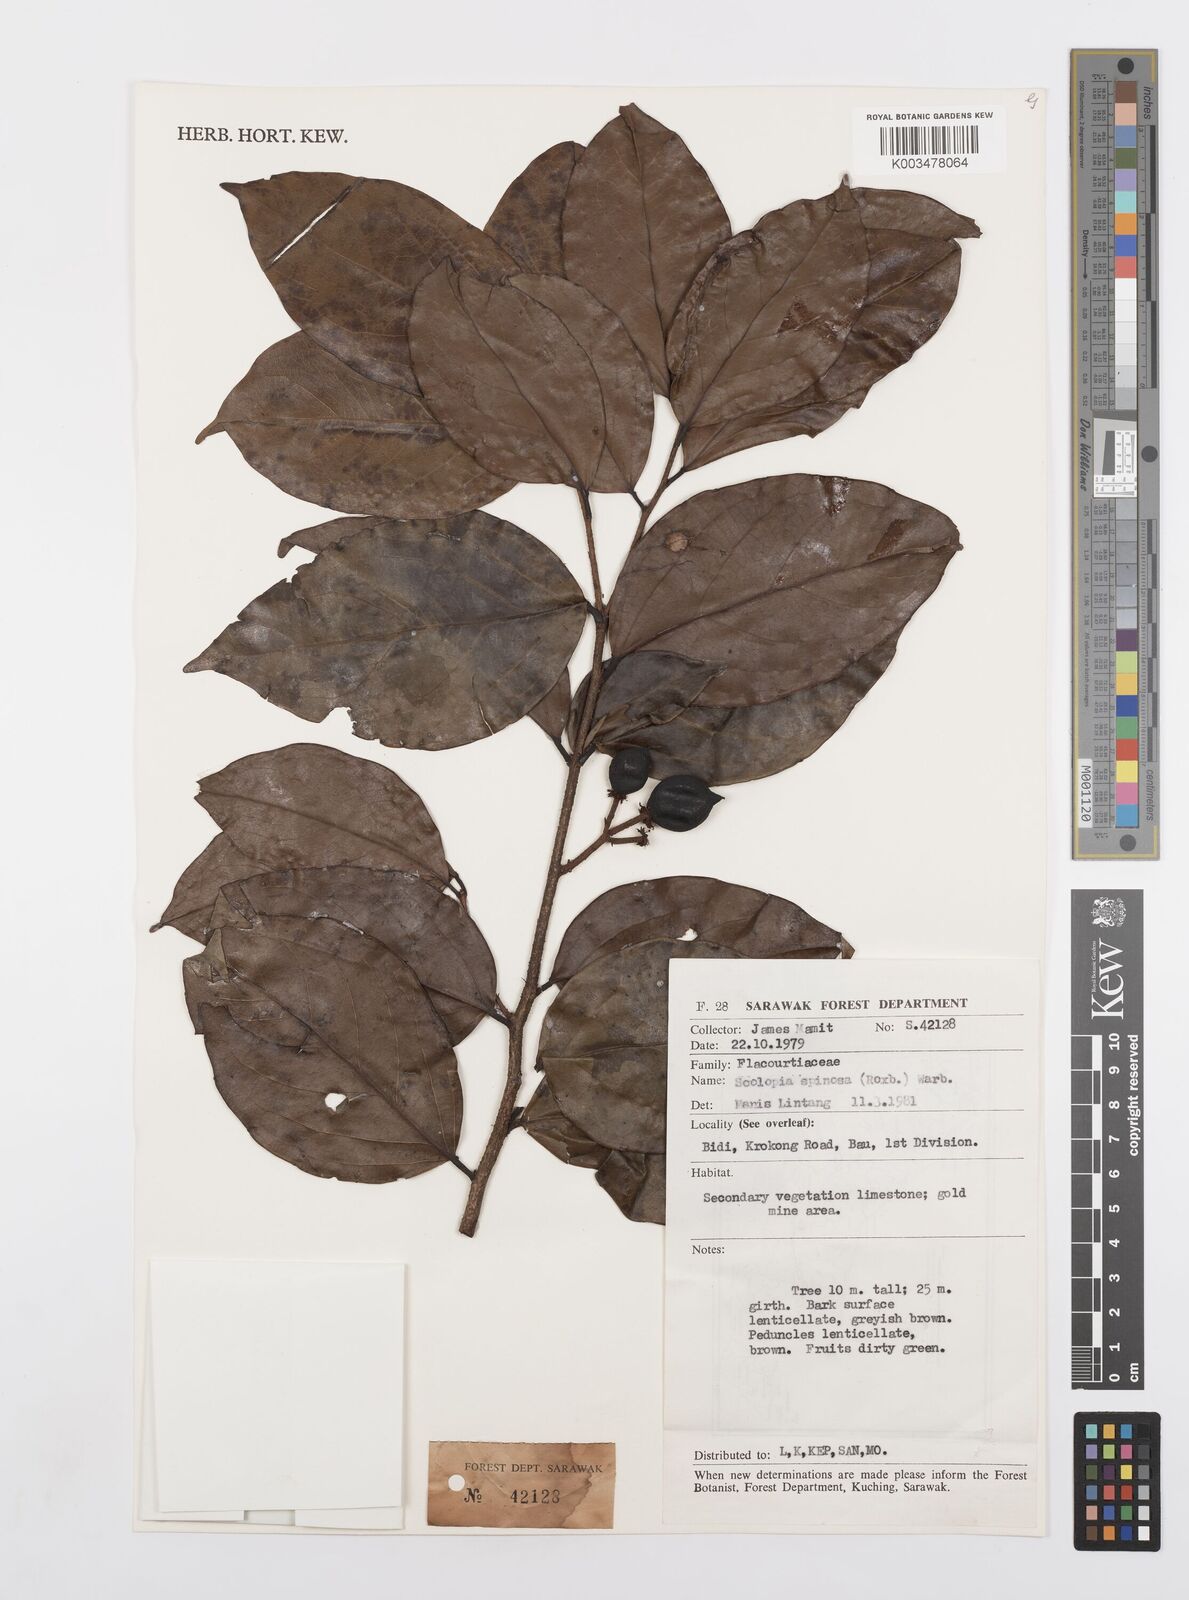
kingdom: Plantae
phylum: Tracheophyta
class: Magnoliopsida
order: Malpighiales
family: Salicaceae
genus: Scolopia
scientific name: Scolopia spinosa
